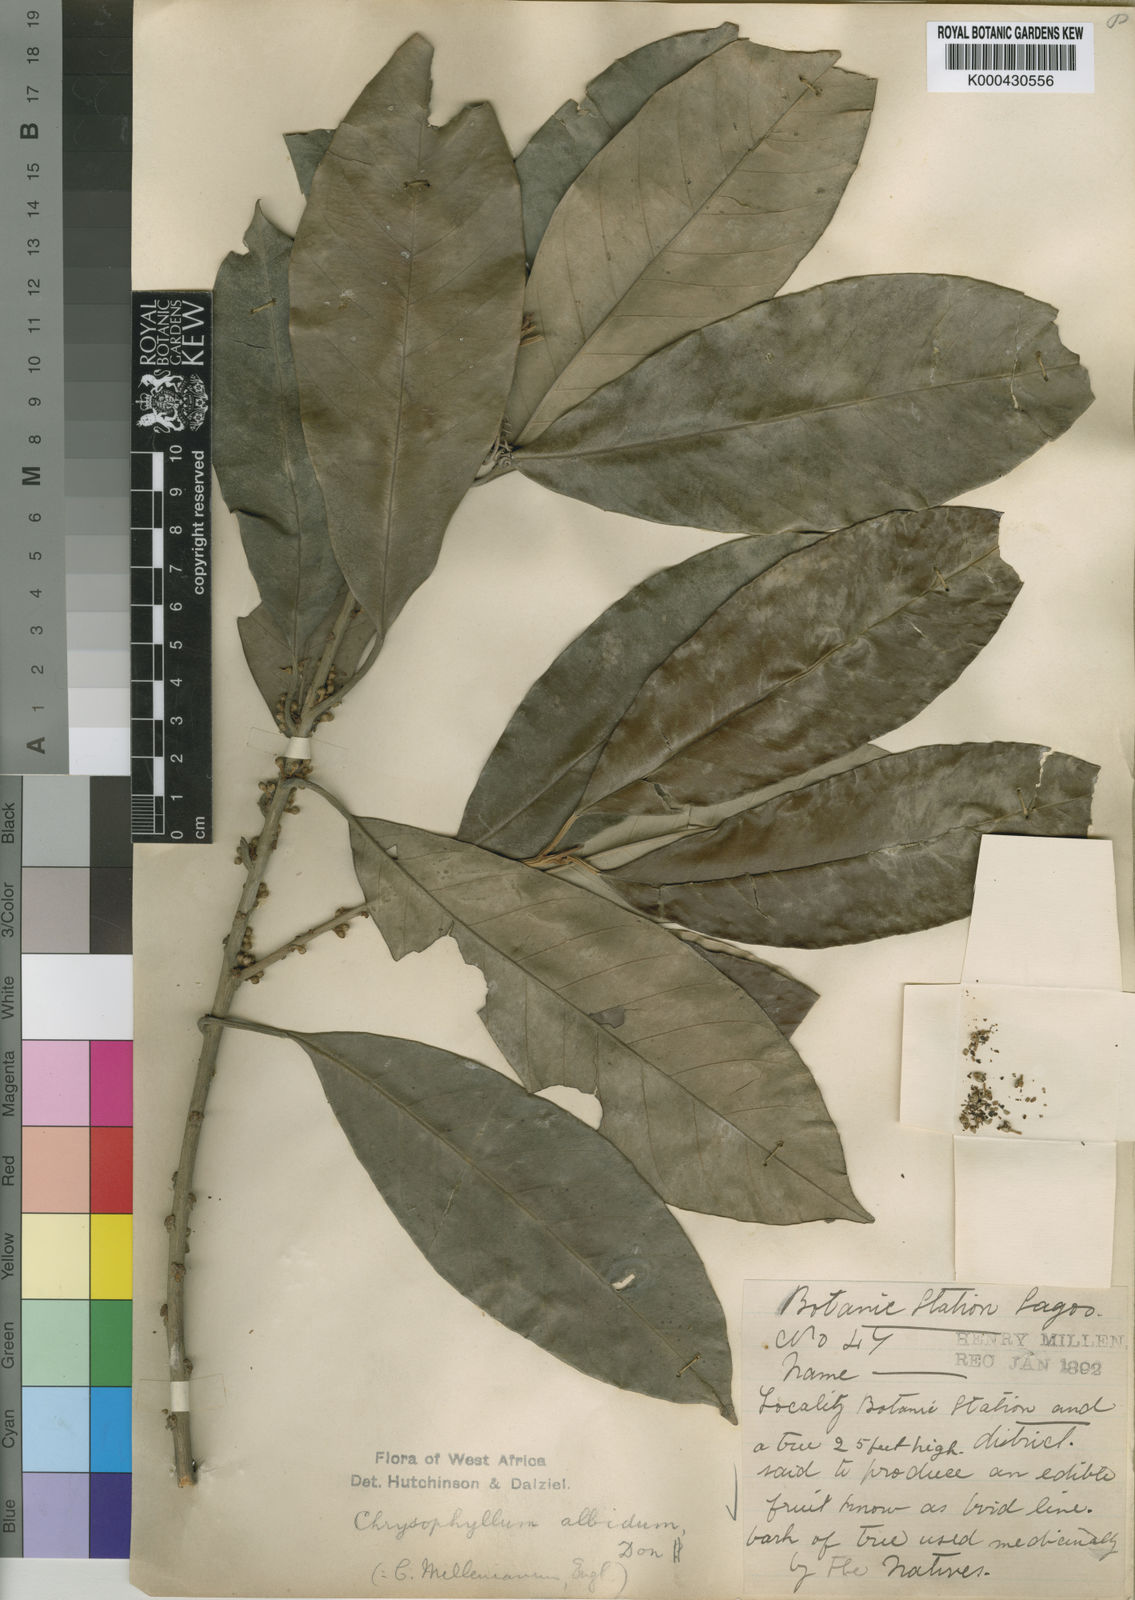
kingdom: Plantae
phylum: Tracheophyta
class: Magnoliopsida
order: Ericales
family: Sapotaceae
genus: Gambeya
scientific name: Gambeya albida
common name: White star apple
